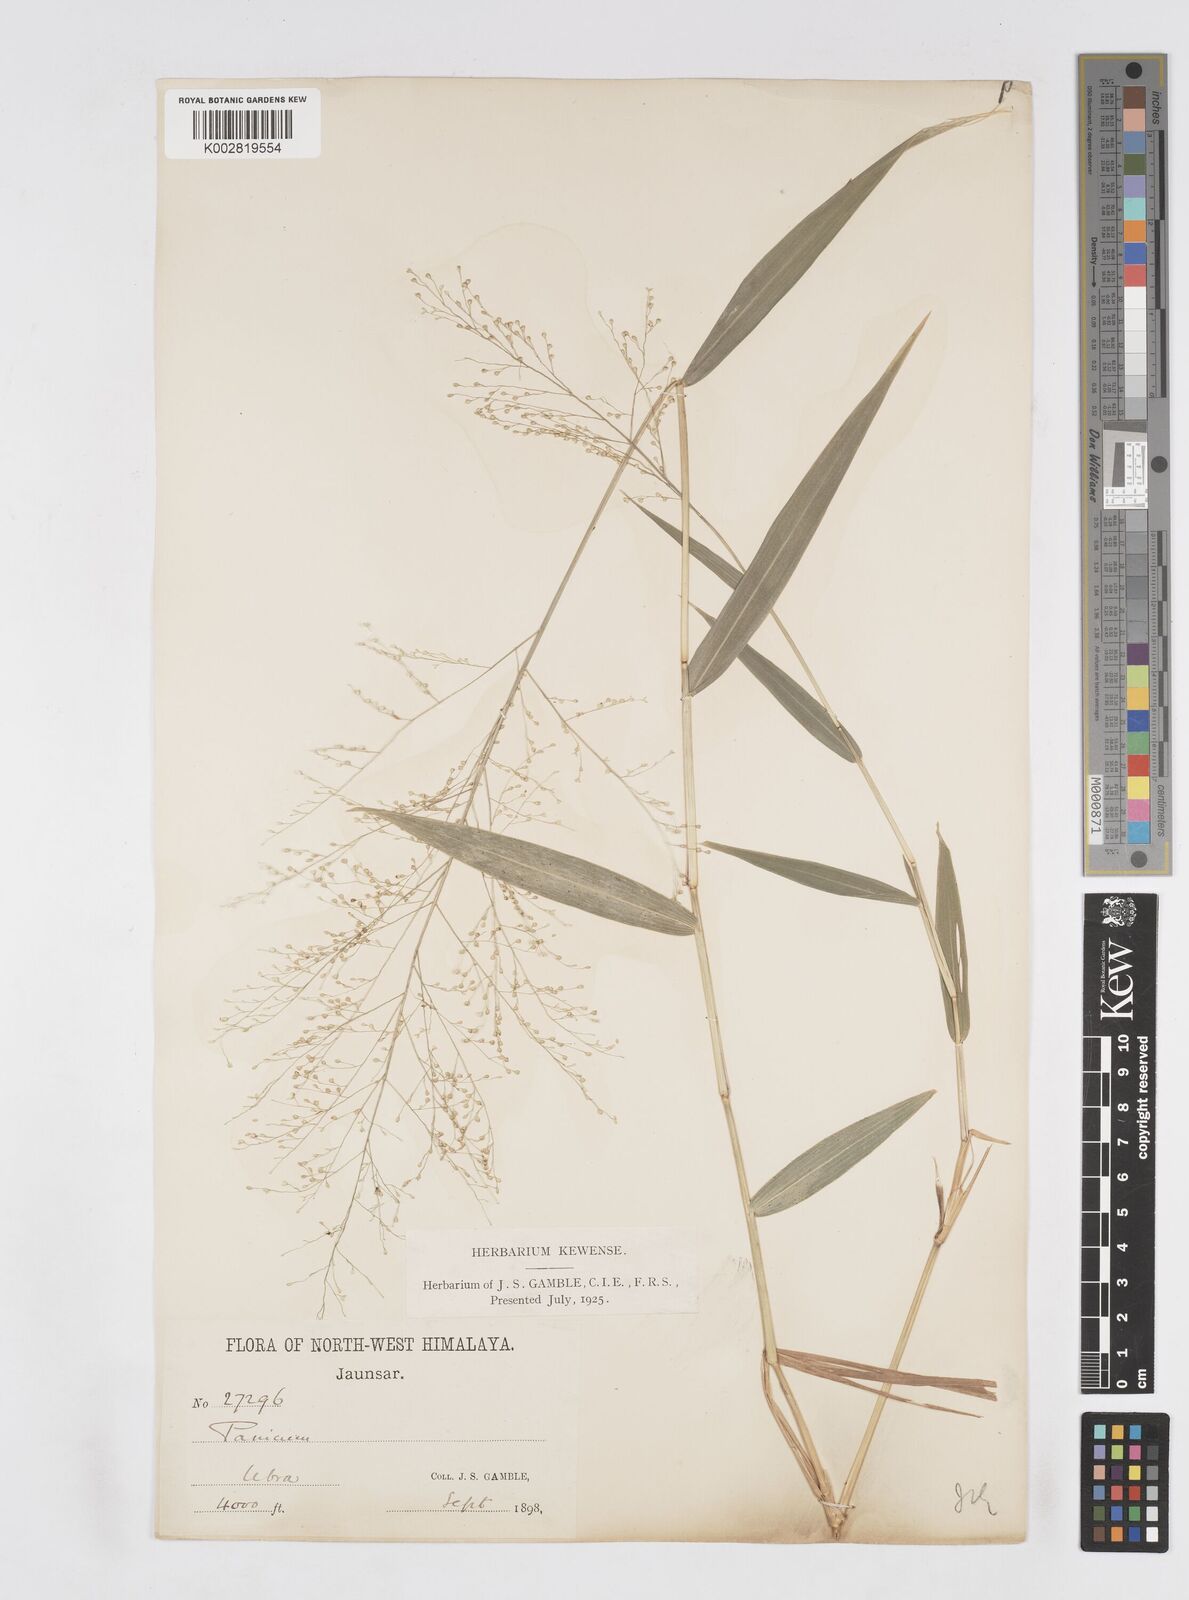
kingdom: Plantae
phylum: Tracheophyta
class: Liliopsida
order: Poales
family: Poaceae
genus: Isachne
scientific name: Isachne albens
